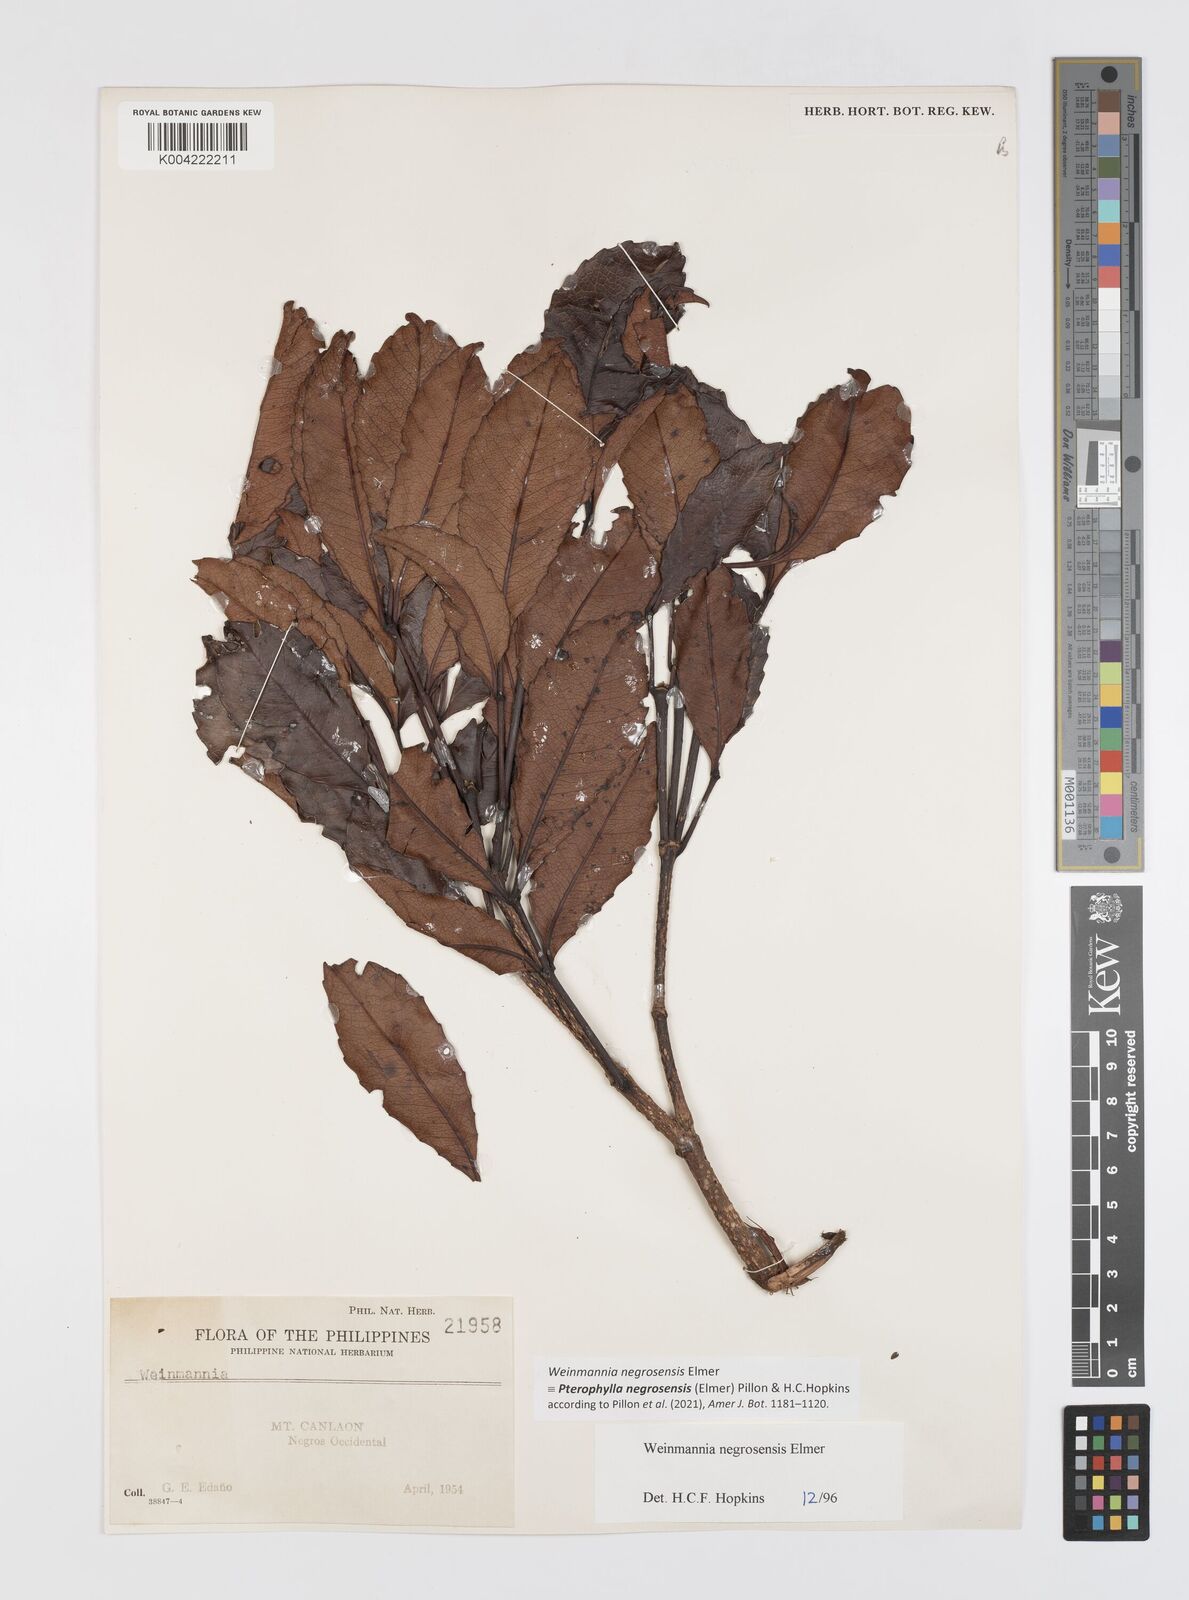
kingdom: Plantae
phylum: Tracheophyta
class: Magnoliopsida
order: Oxalidales
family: Cunoniaceae
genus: Pterophylla
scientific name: Pterophylla negrosensis
